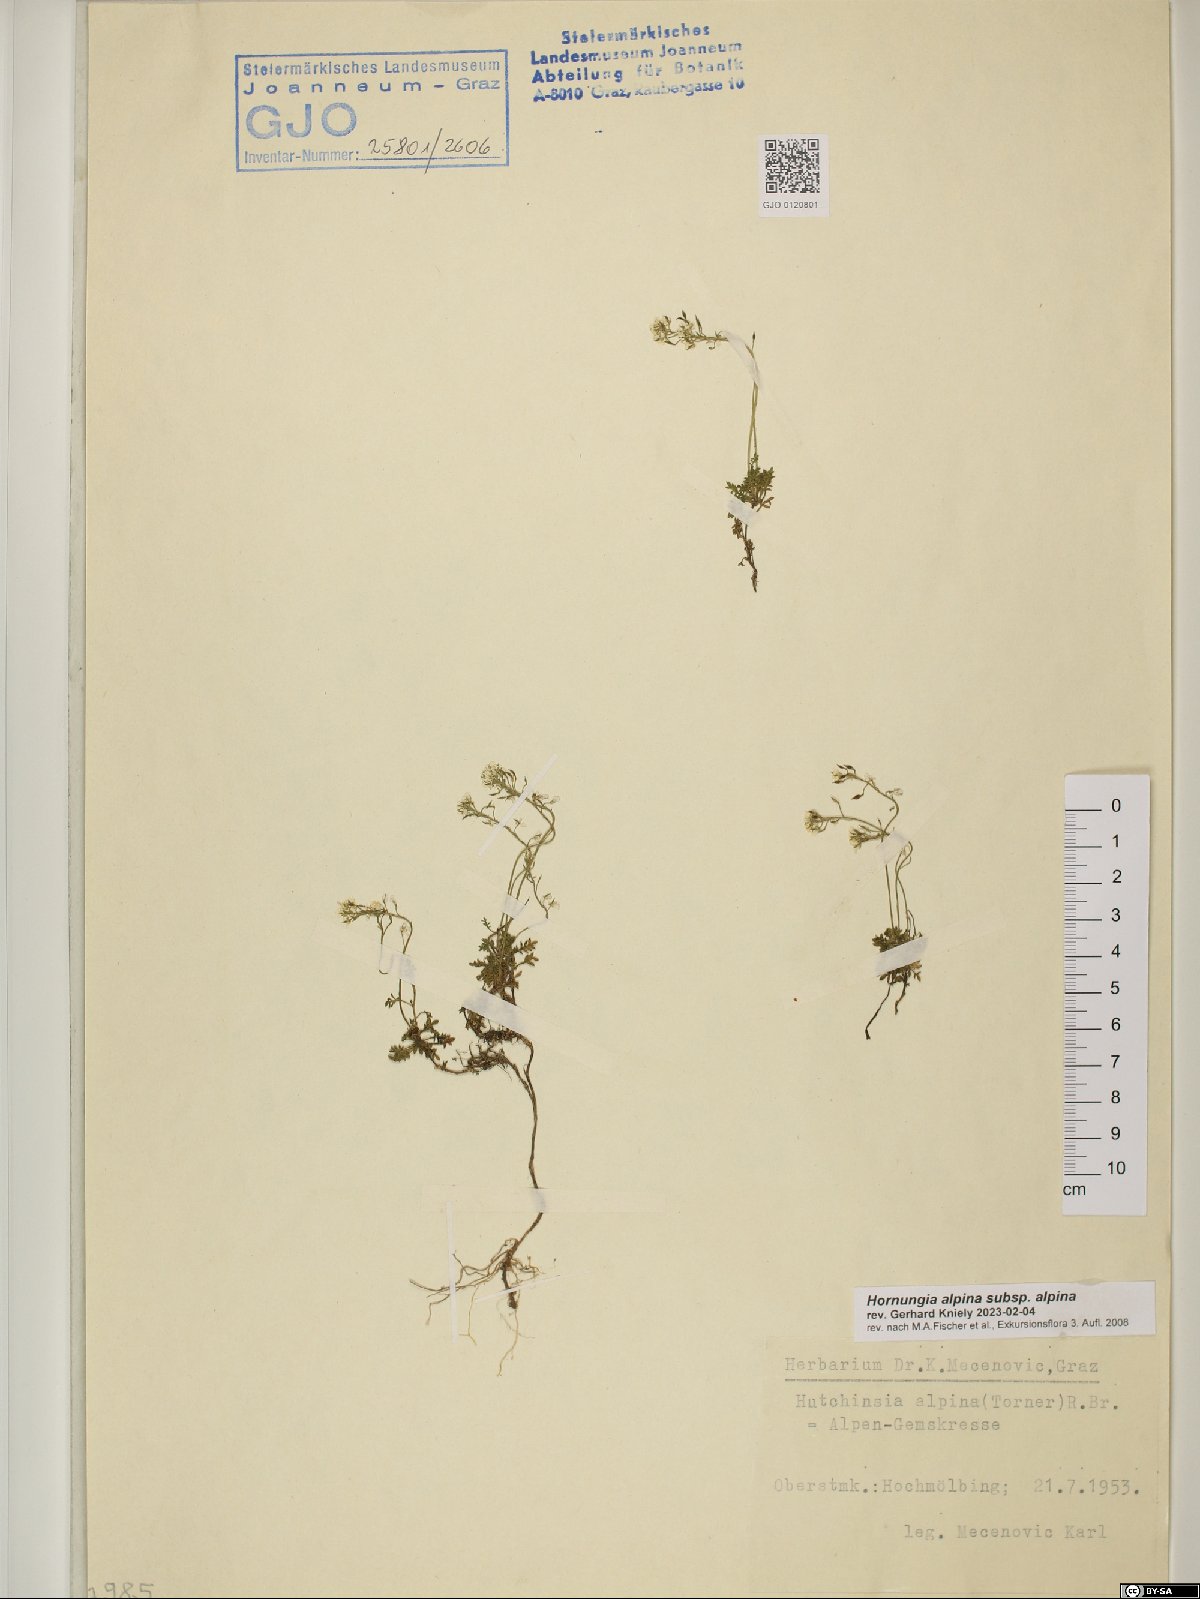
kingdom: Plantae
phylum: Tracheophyta
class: Magnoliopsida
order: Brassicales
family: Brassicaceae
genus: Hornungia
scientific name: Hornungia alpina
